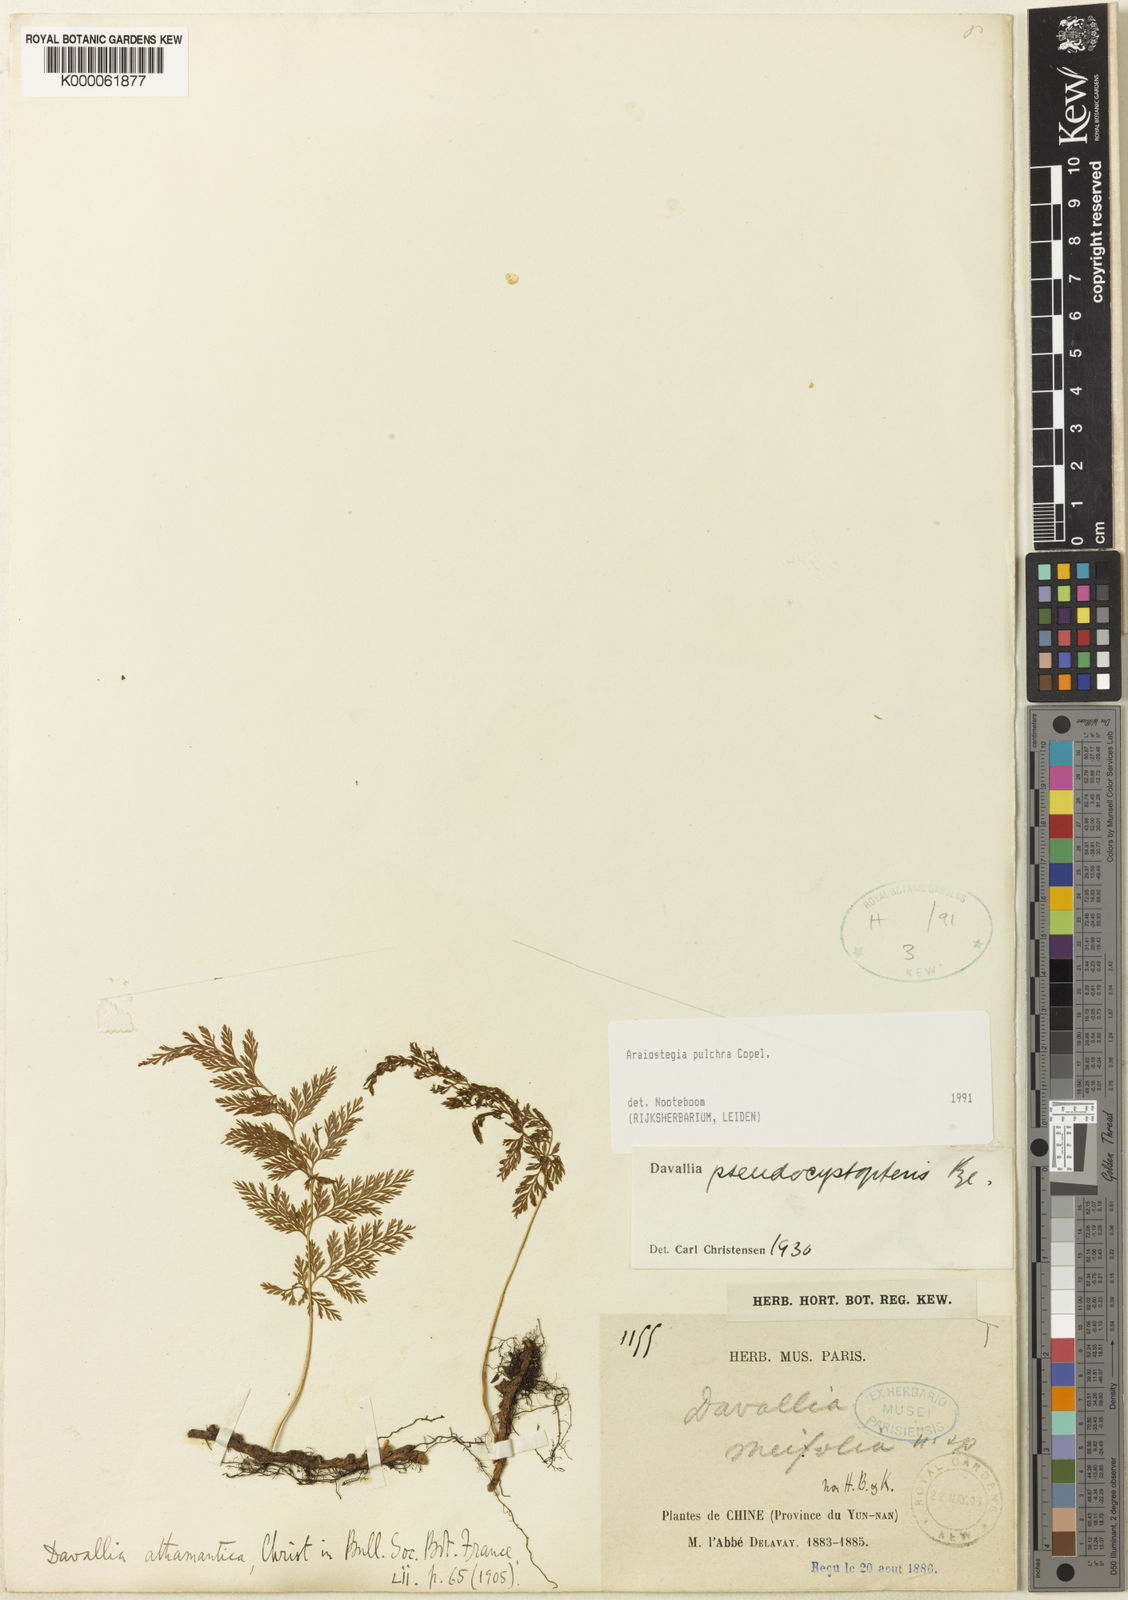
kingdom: Plantae
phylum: Tracheophyta
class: Polypodiopsida
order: Polypodiales
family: Davalliaceae
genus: Davallodes
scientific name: Davallodes pulchra
